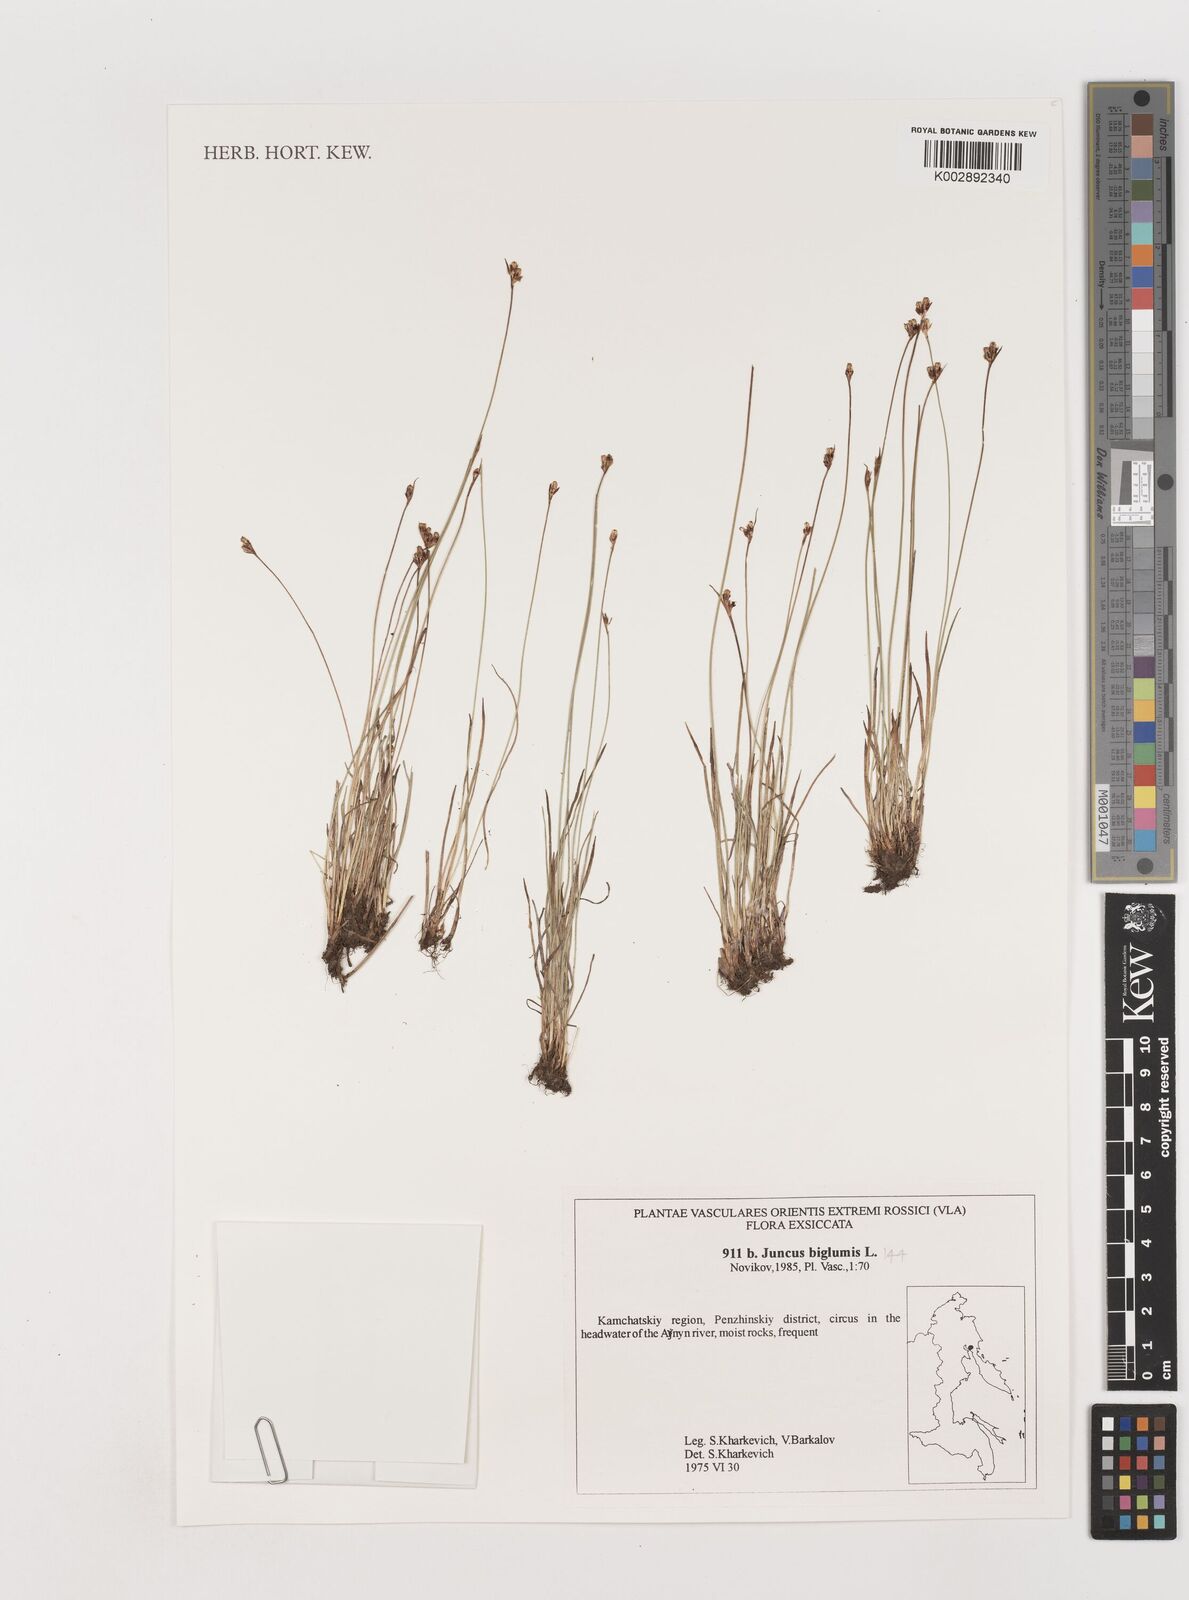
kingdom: Plantae
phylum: Tracheophyta
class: Liliopsida
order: Poales
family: Juncaceae
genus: Juncus
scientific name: Juncus biglumis
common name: Two-flowered rush
